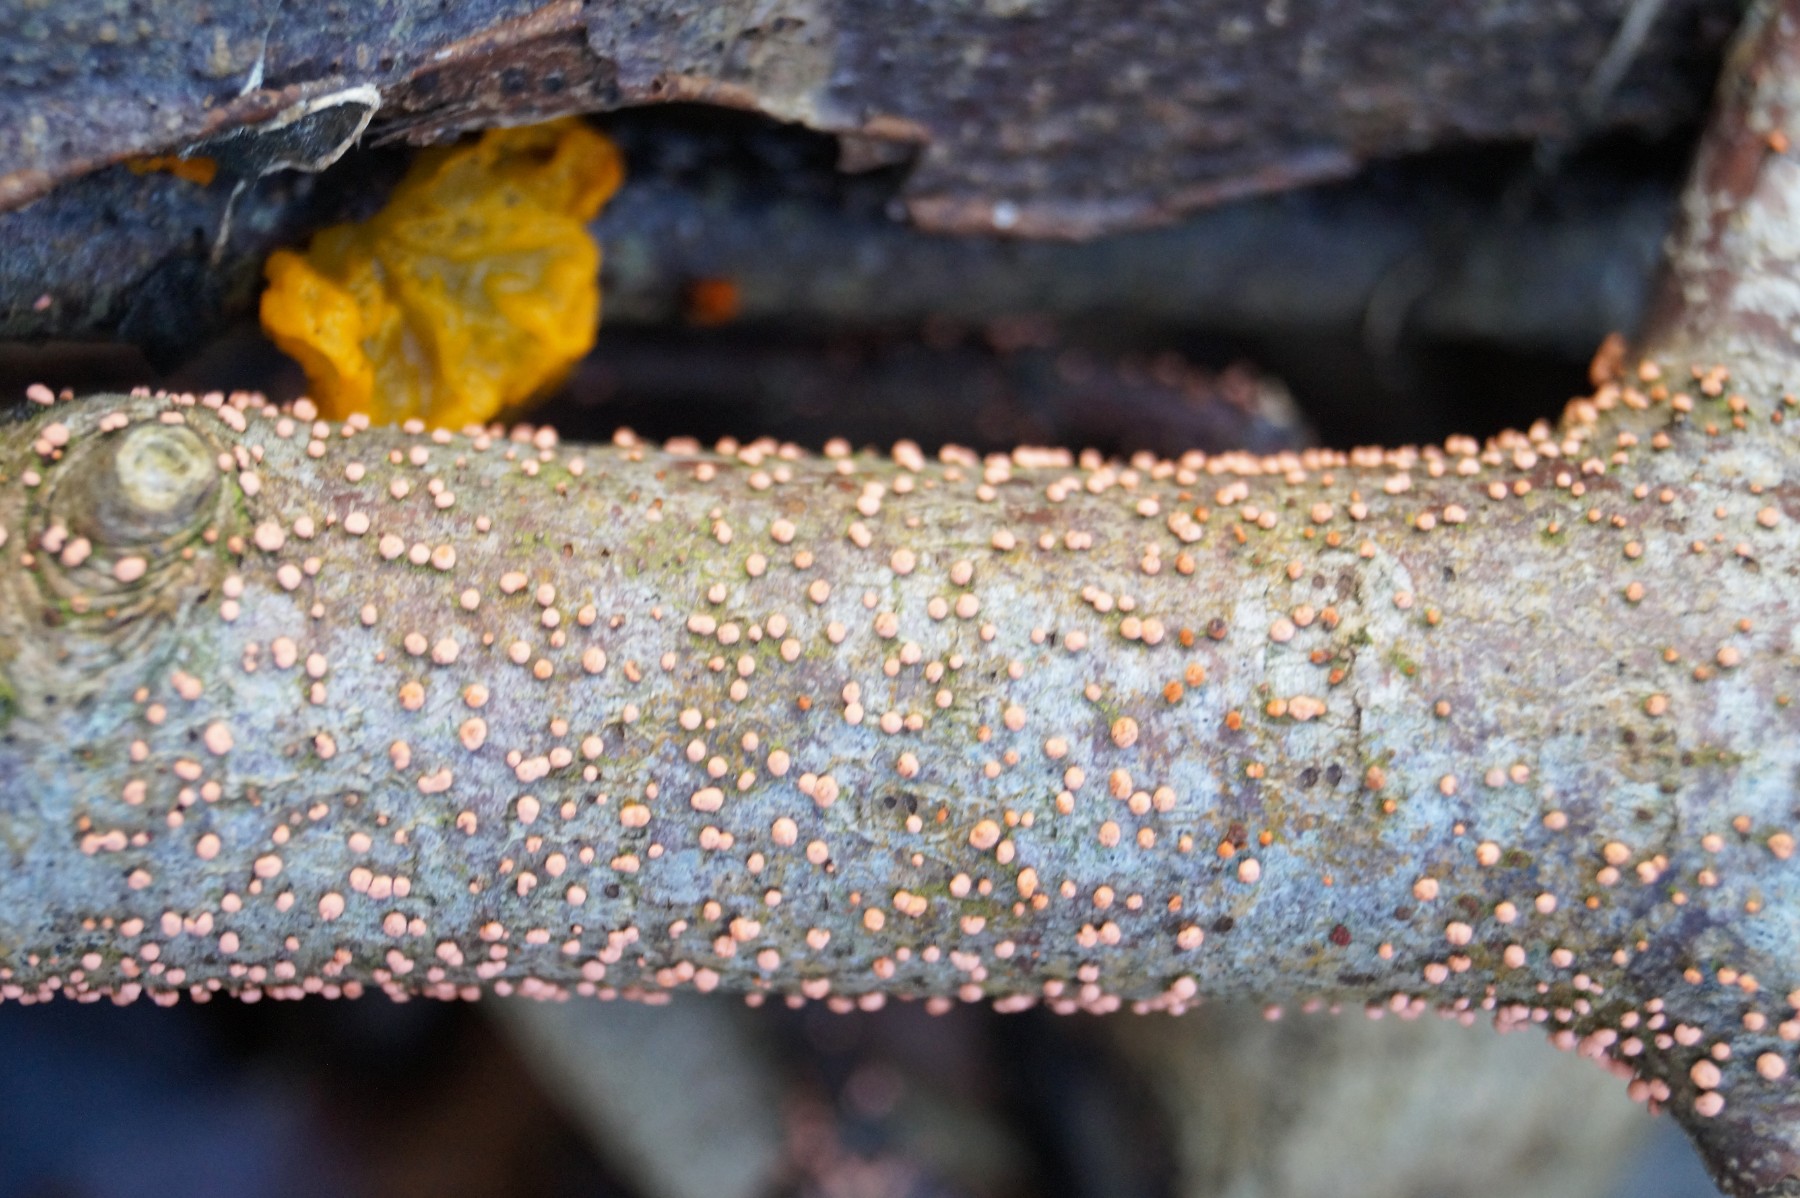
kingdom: Fungi
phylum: Ascomycota
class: Sordariomycetes
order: Hypocreales
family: Nectriaceae
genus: Nectria
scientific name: Nectria cinnabarina
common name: almindelig cinnobersvamp
